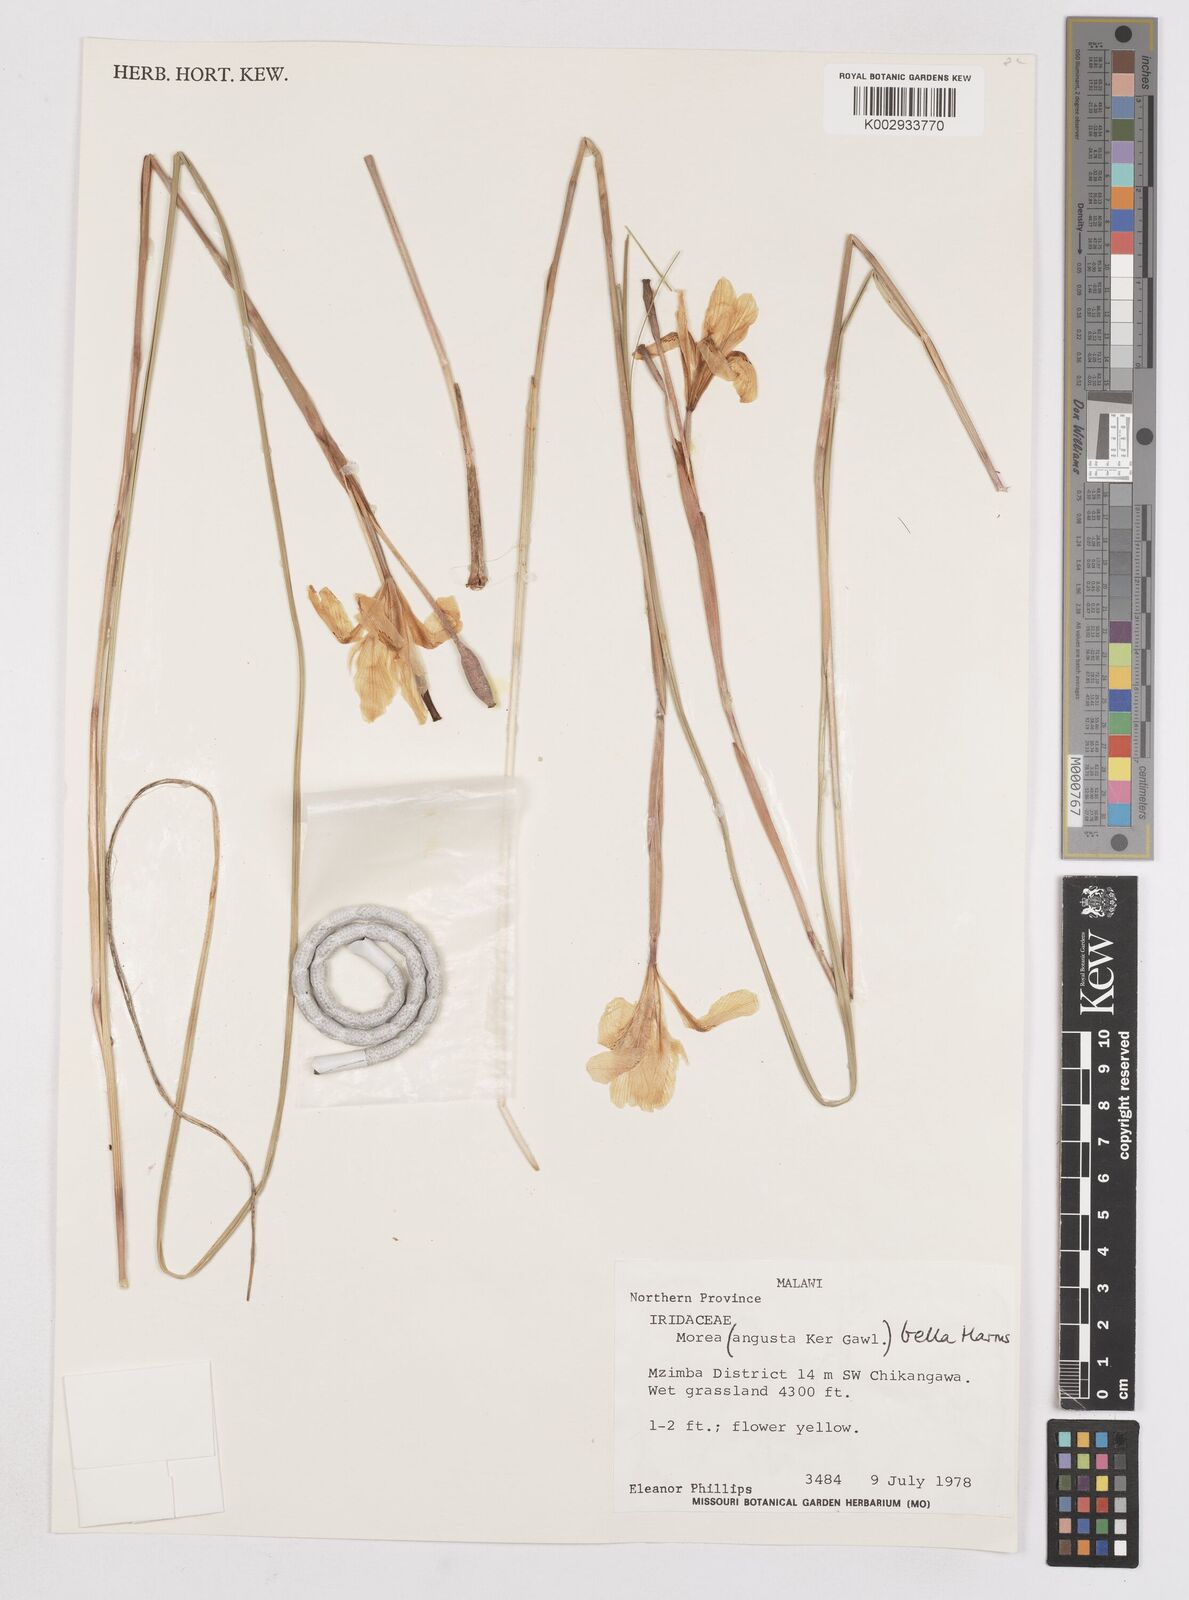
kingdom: Plantae
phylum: Tracheophyta
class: Liliopsida
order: Asparagales
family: Iridaceae
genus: Moraea
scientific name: Moraea bella
